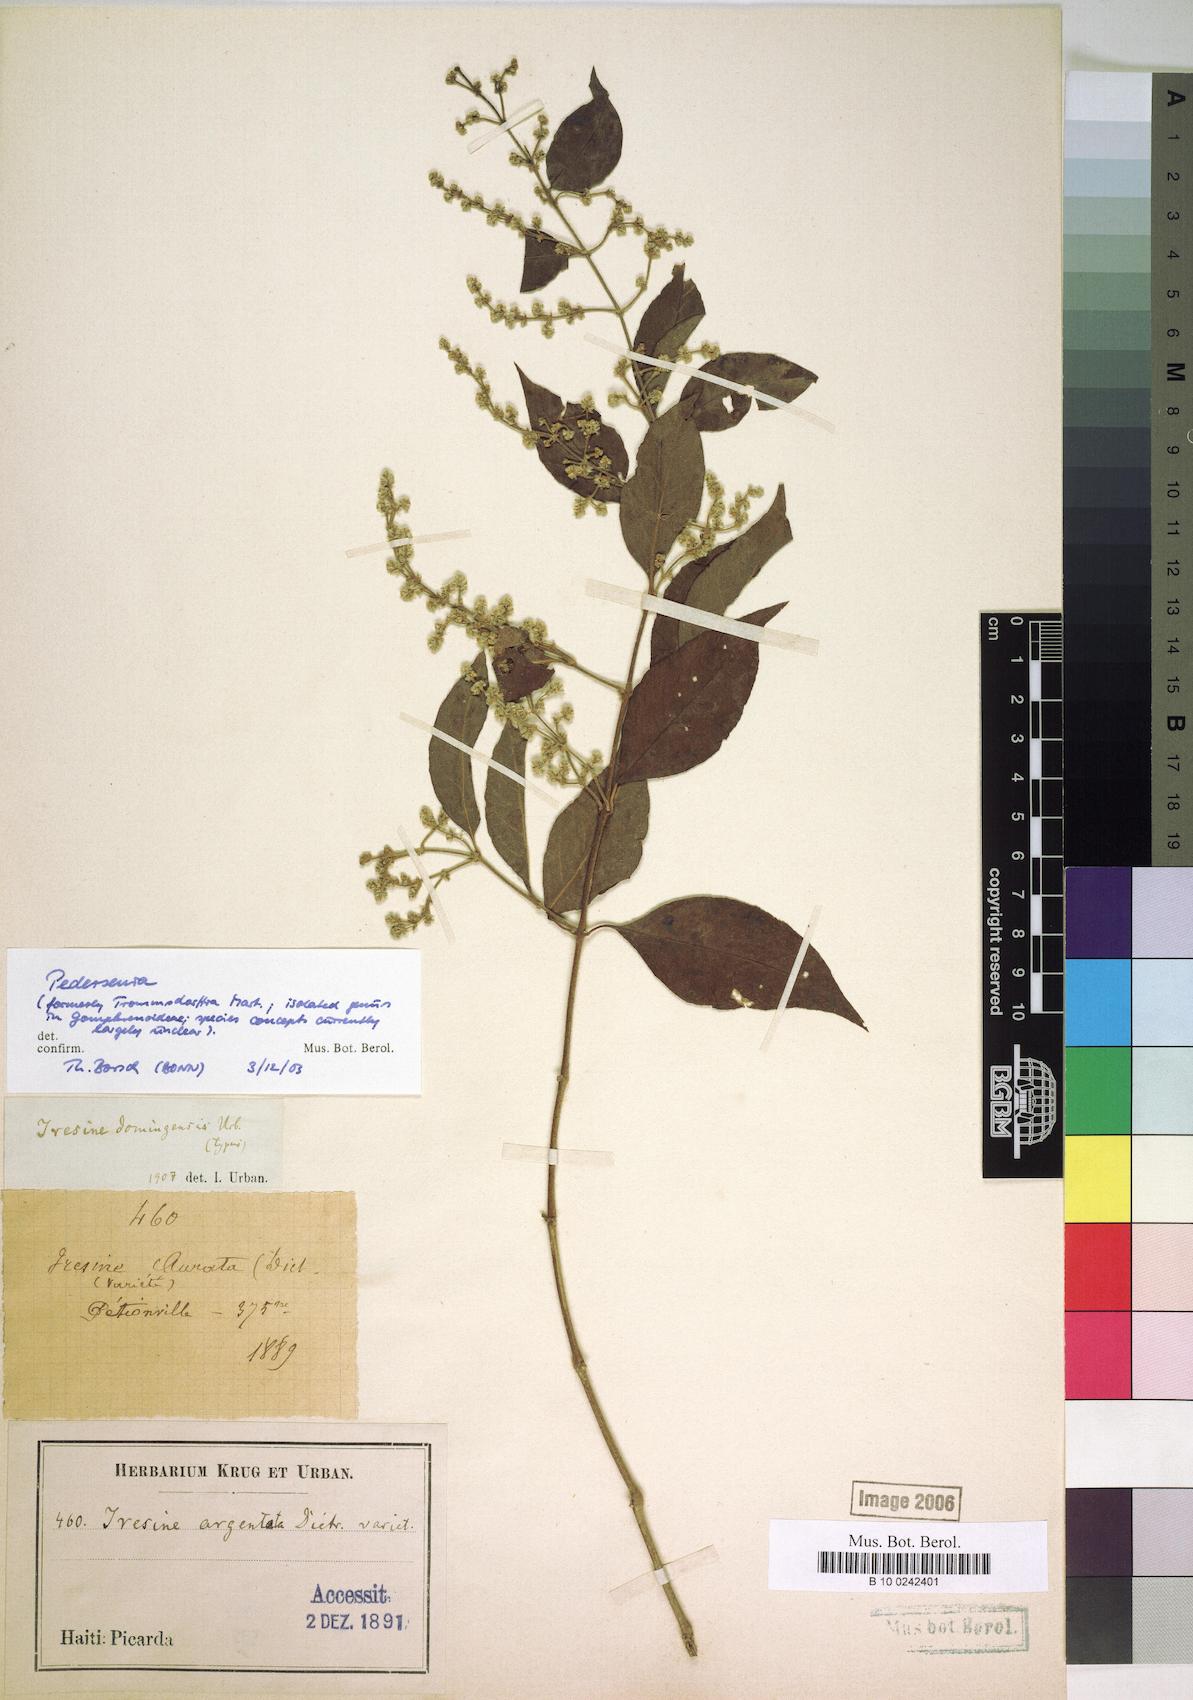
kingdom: Plantae
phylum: Tracheophyta
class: Magnoliopsida
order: Caryophyllales
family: Amaranthaceae
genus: Iresine
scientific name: Iresine domingensis
